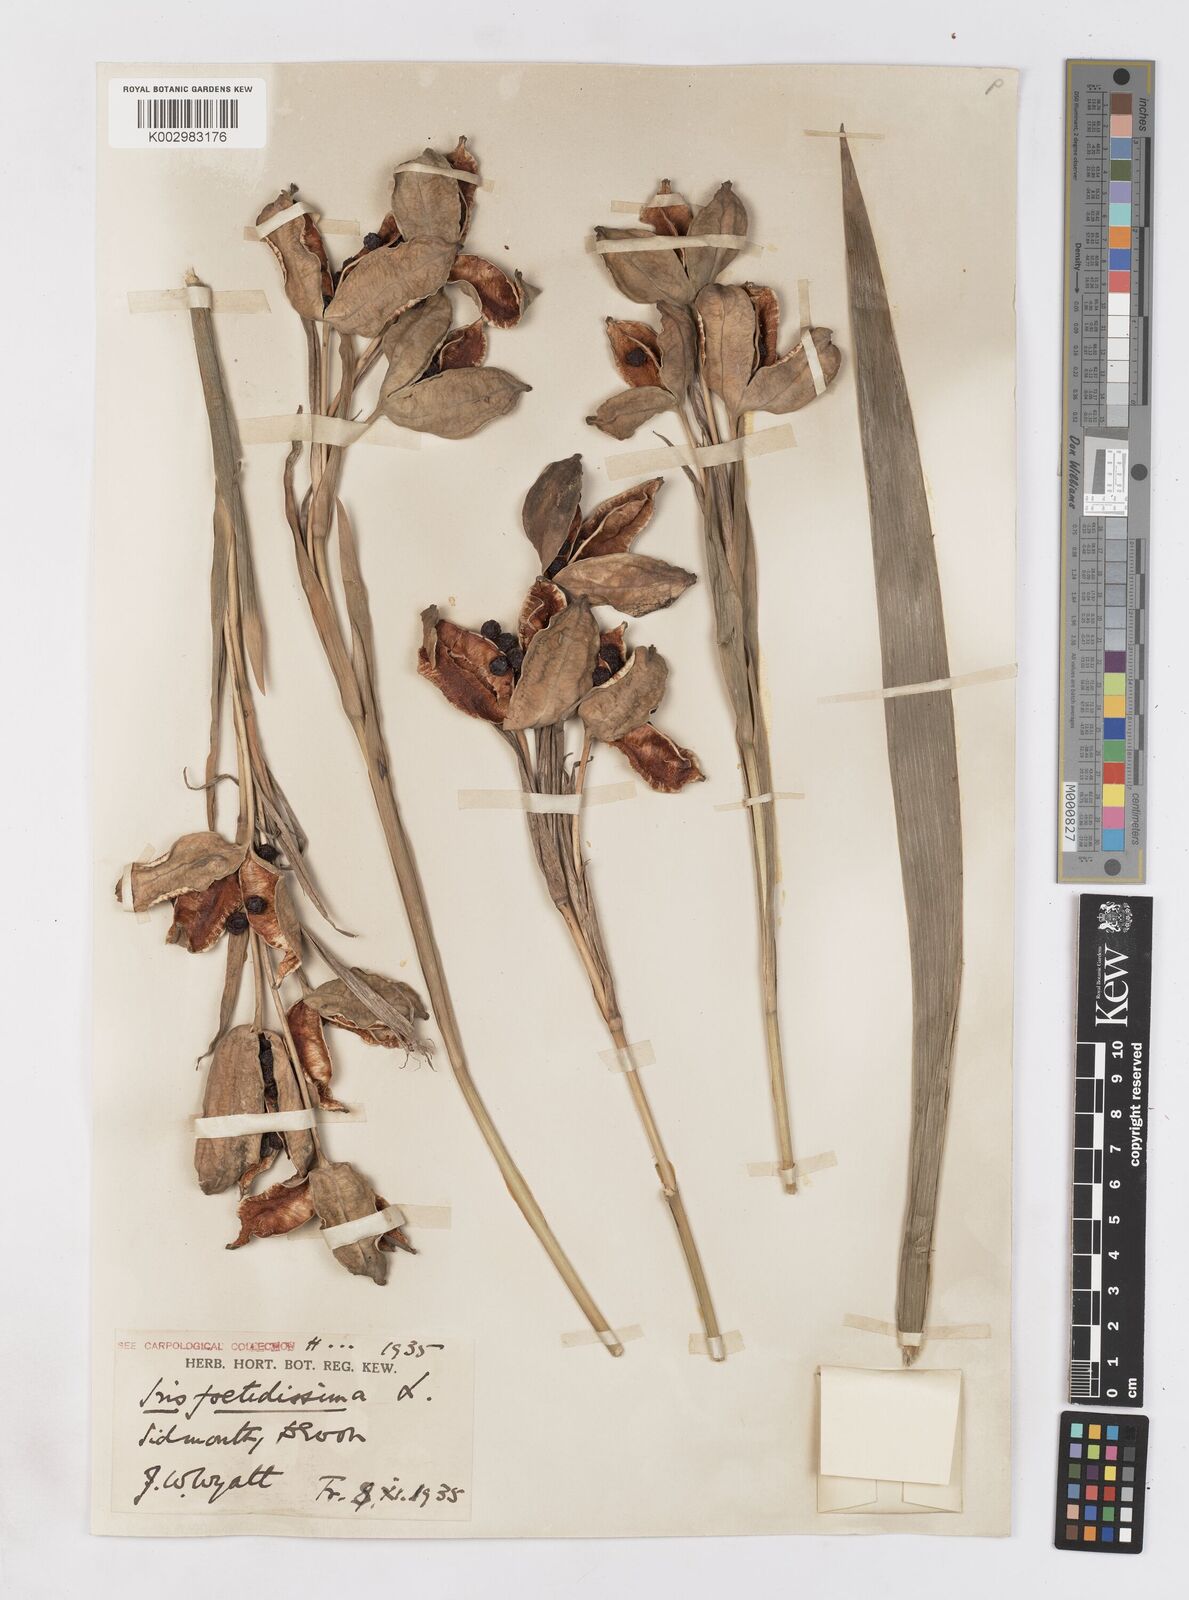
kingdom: Plantae
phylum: Tracheophyta
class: Liliopsida
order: Asparagales
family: Iridaceae
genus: Iris
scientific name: Iris foetidissima
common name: Stinking iris
